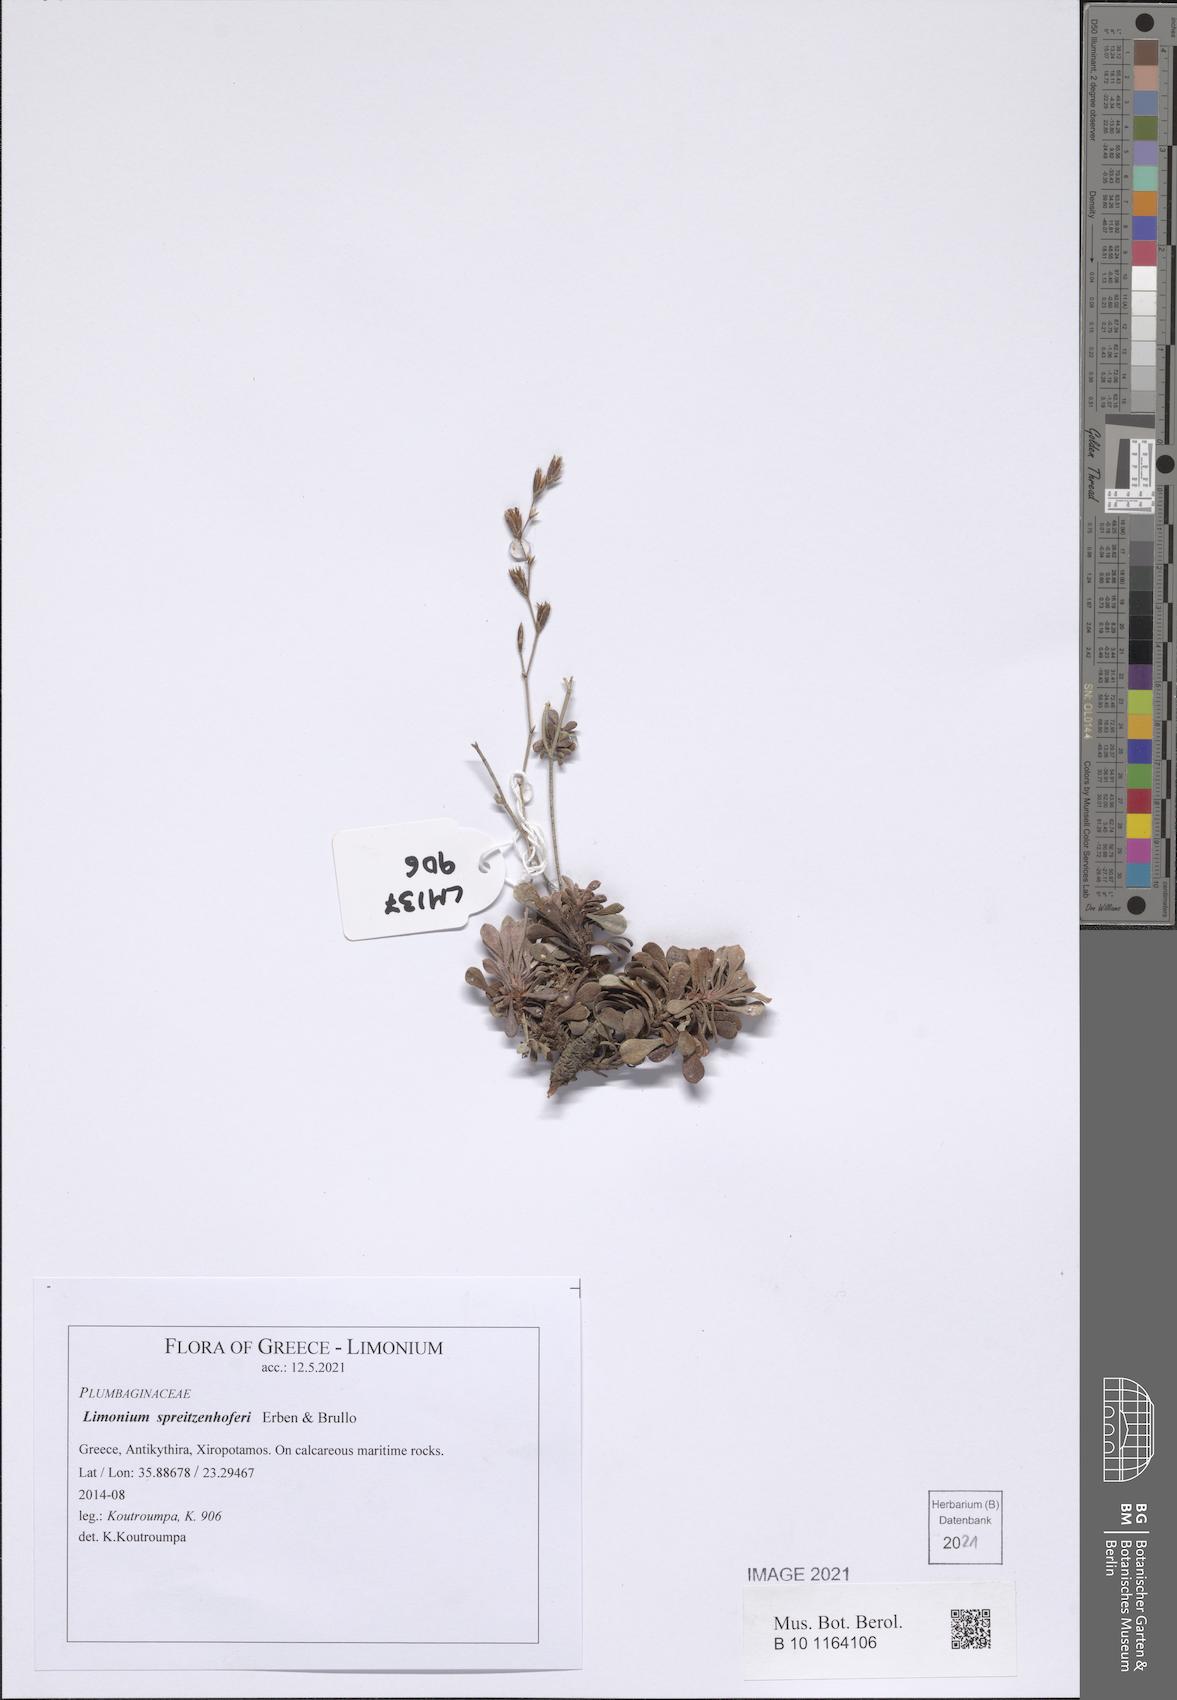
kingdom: Plantae
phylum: Tracheophyta
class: Magnoliopsida
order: Caryophyllales
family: Plumbaginaceae
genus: Limonium
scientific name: Limonium spreitzenhoferi
